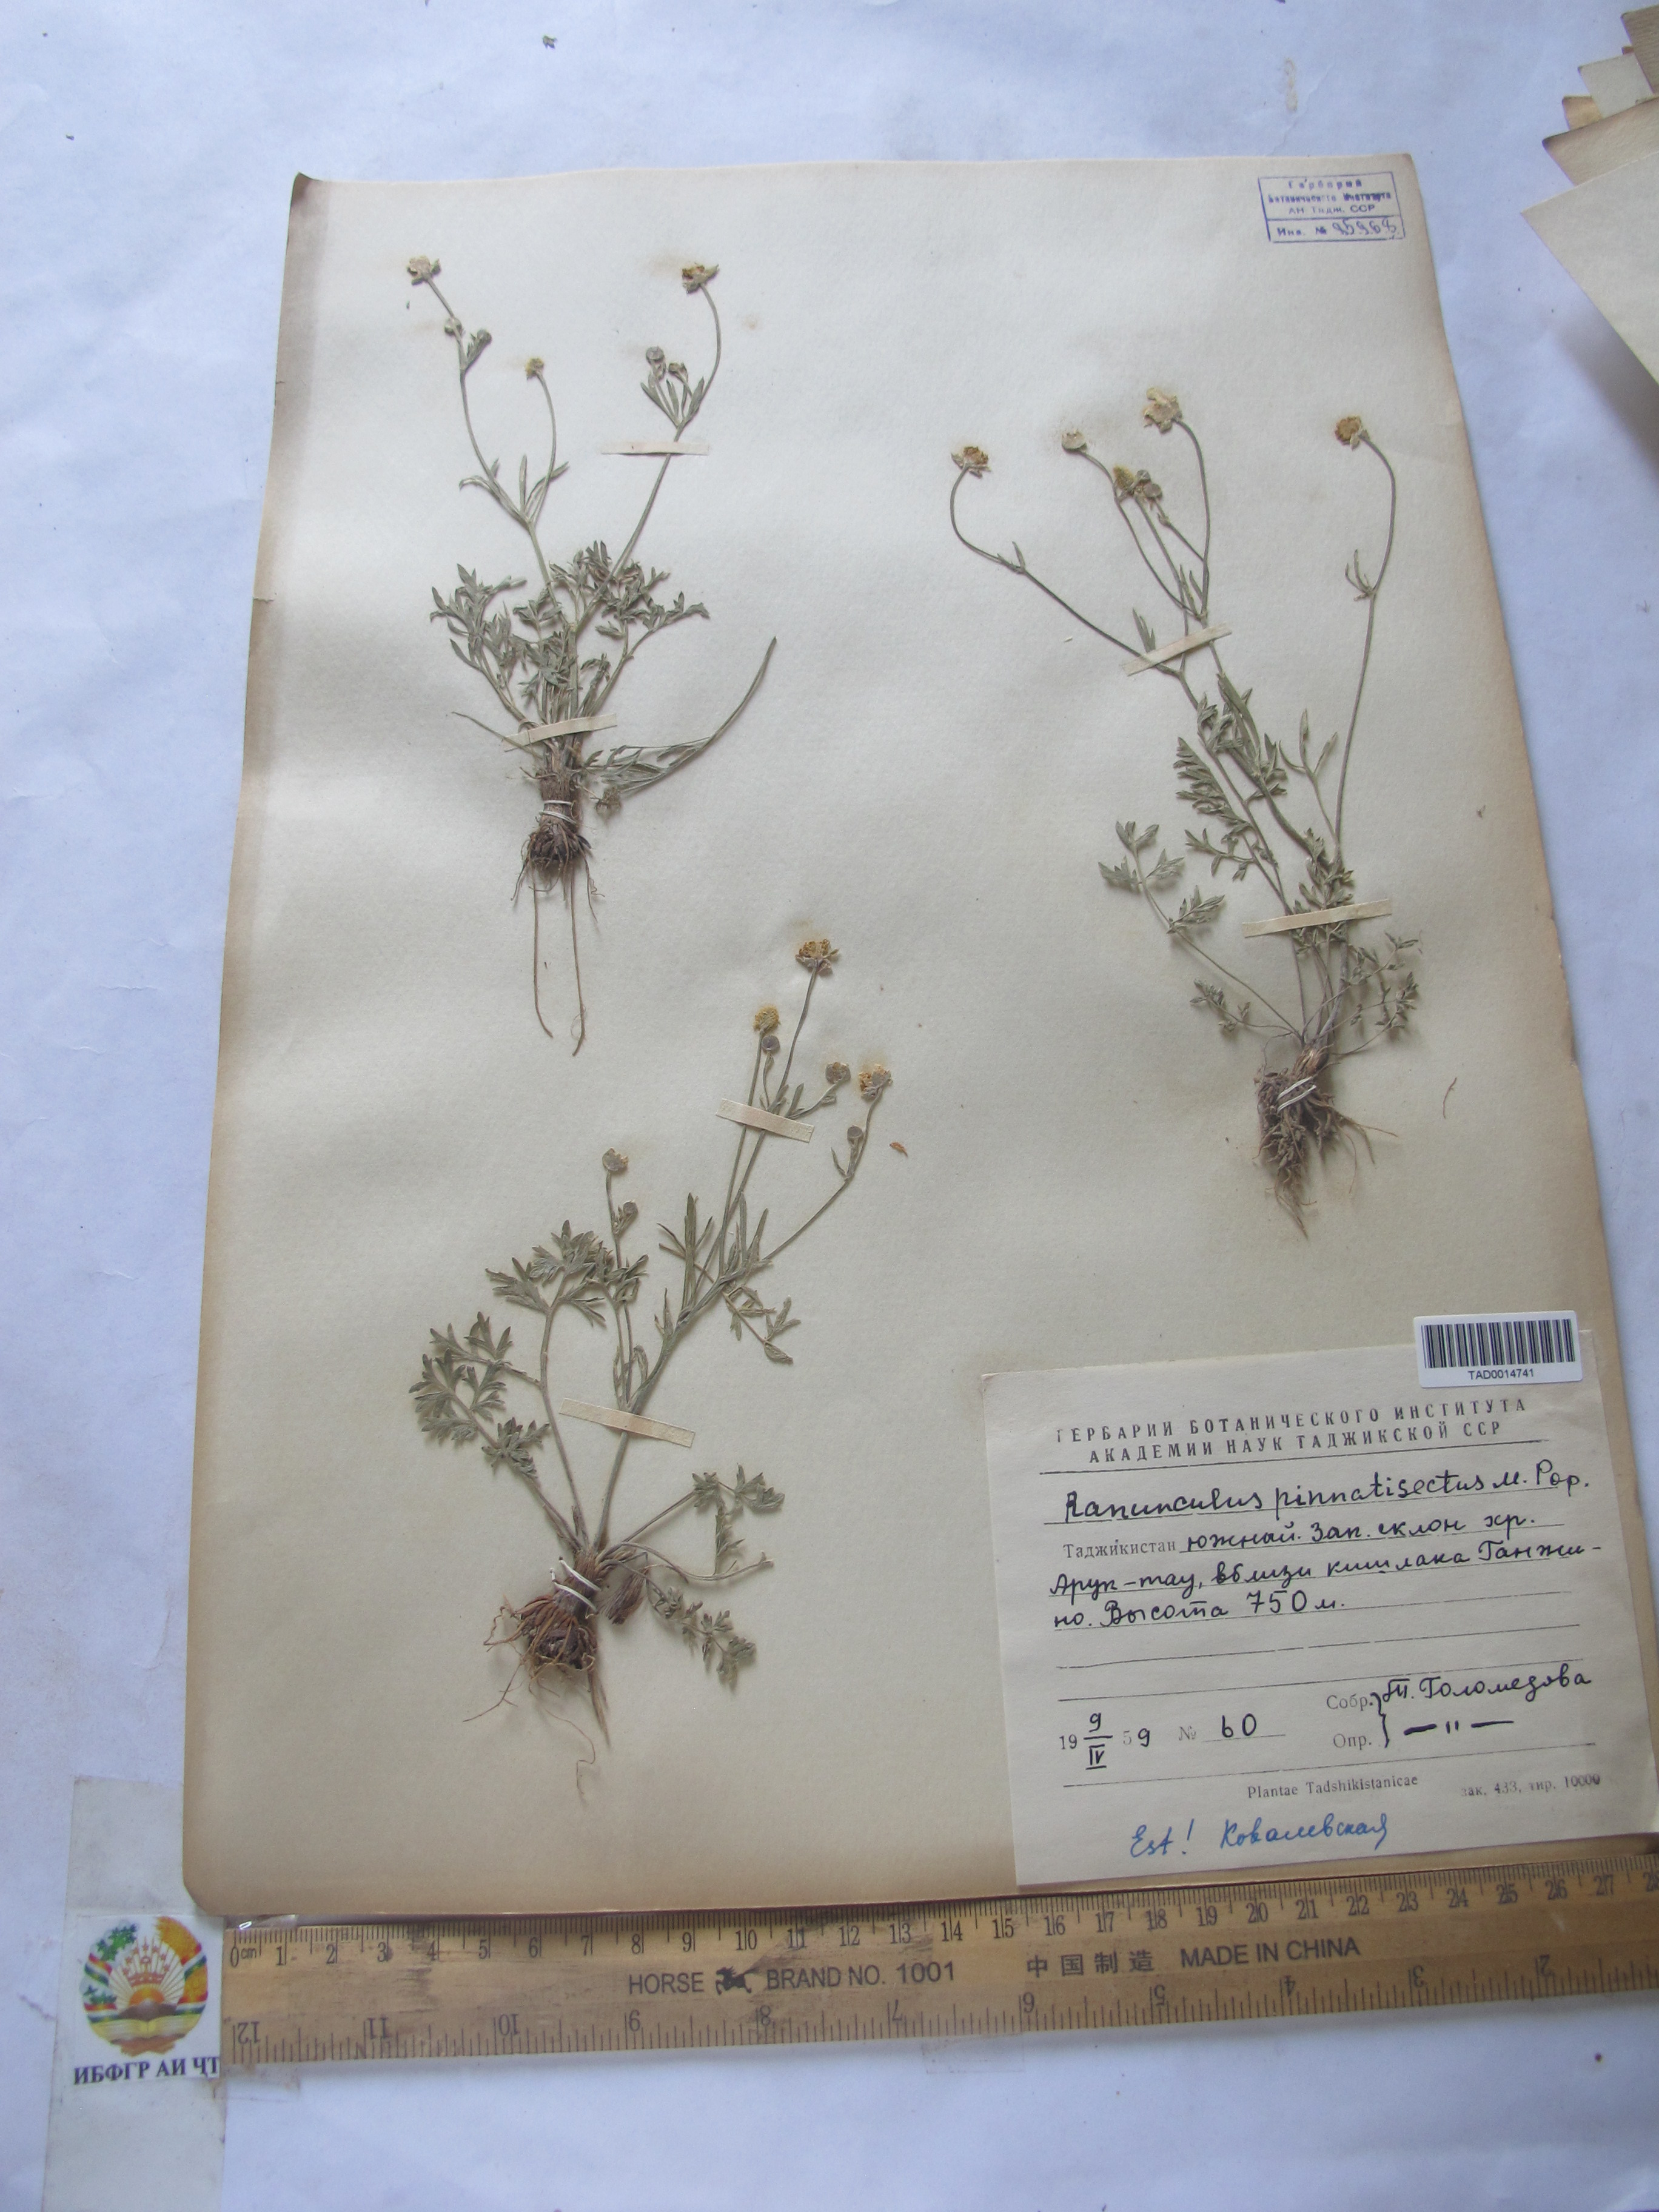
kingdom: Plantae
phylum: Tracheophyta
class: Magnoliopsida
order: Ranunculales
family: Ranunculaceae
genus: Ranunculus
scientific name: Ranunculus pinnatisectus
